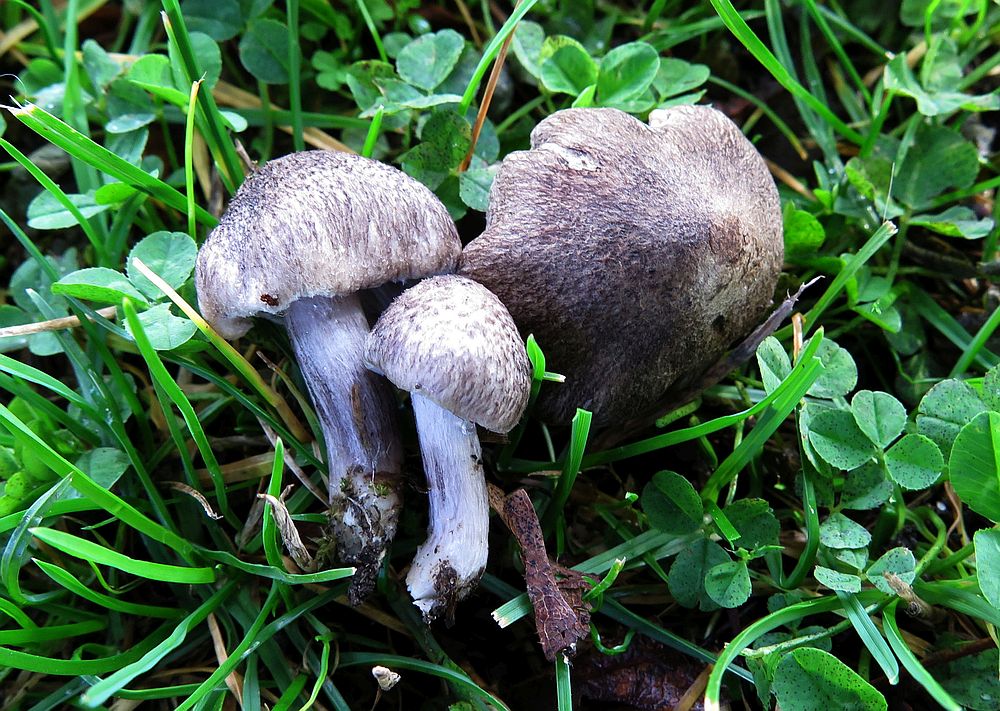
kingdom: Fungi
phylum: Basidiomycota
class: Agaricomycetes
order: Agaricales
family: Tricholomataceae
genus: Tricholoma
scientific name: Tricholoma scalpturatum
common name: gulplettet ridderhat
